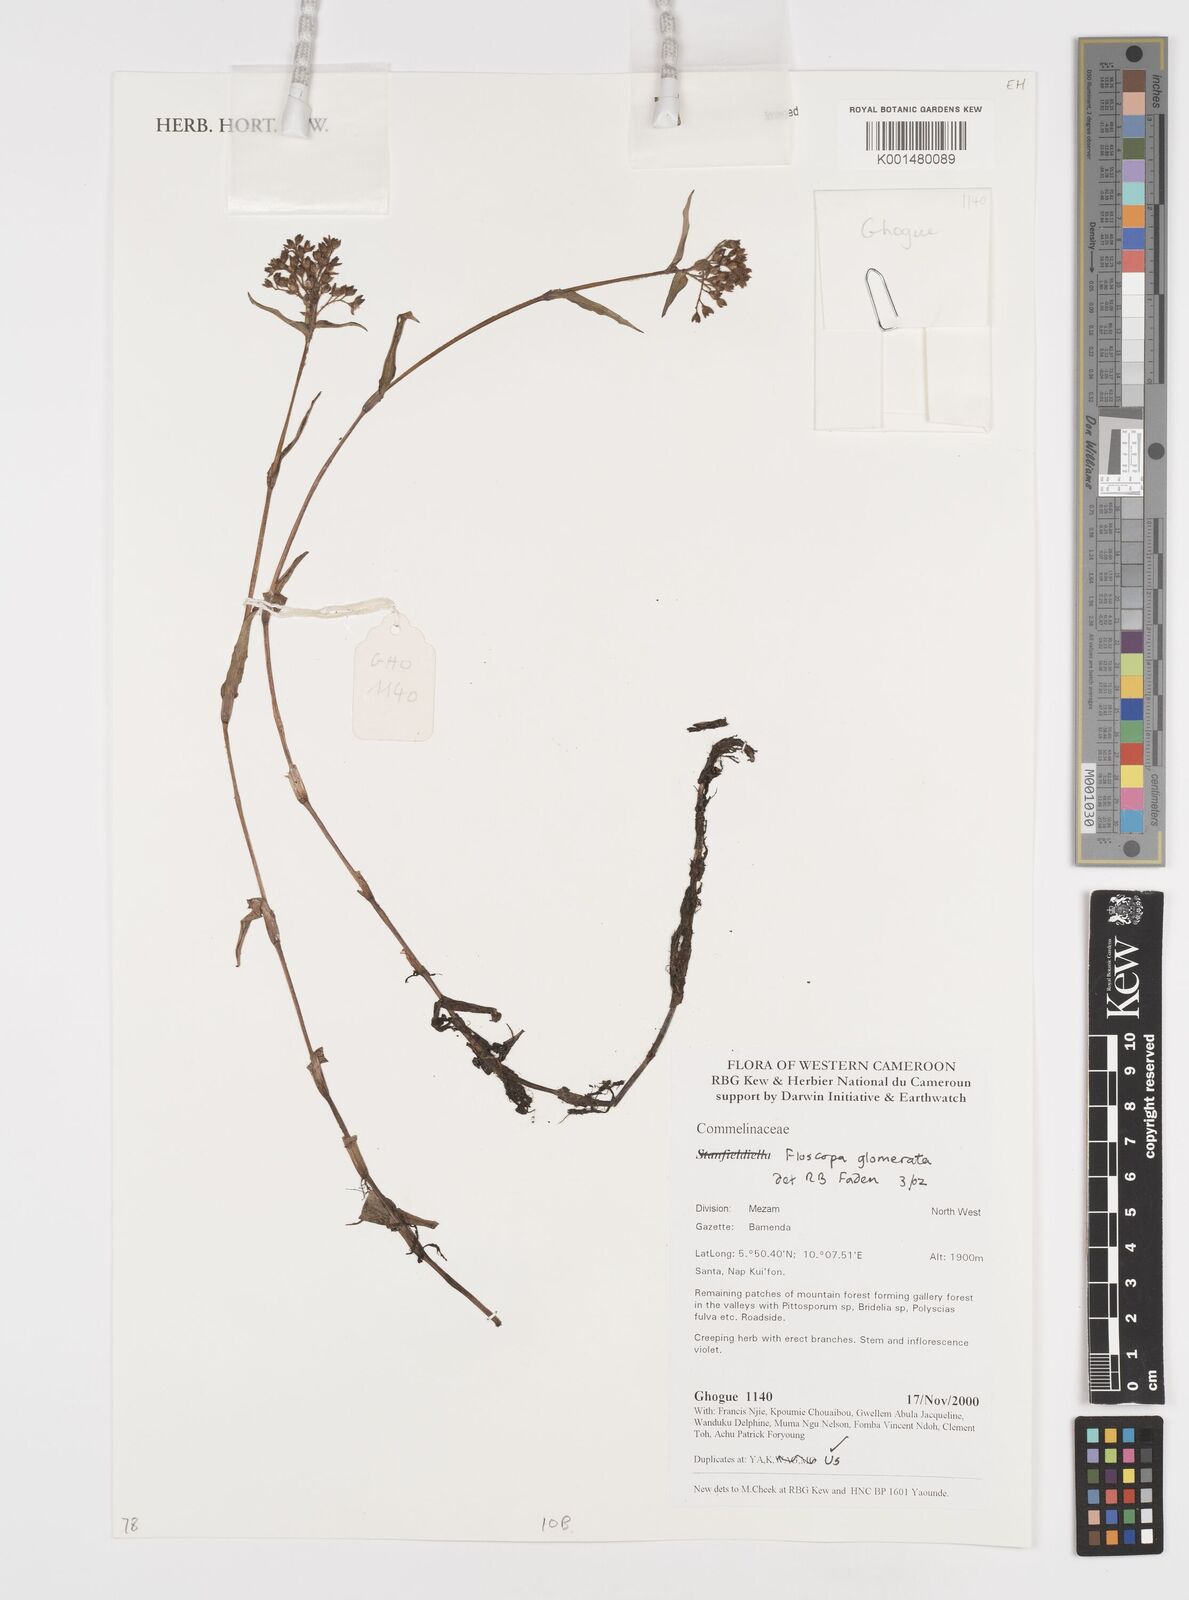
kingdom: Plantae
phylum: Tracheophyta
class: Liliopsida
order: Commelinales
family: Commelinaceae
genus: Floscopa
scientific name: Floscopa glomerata
